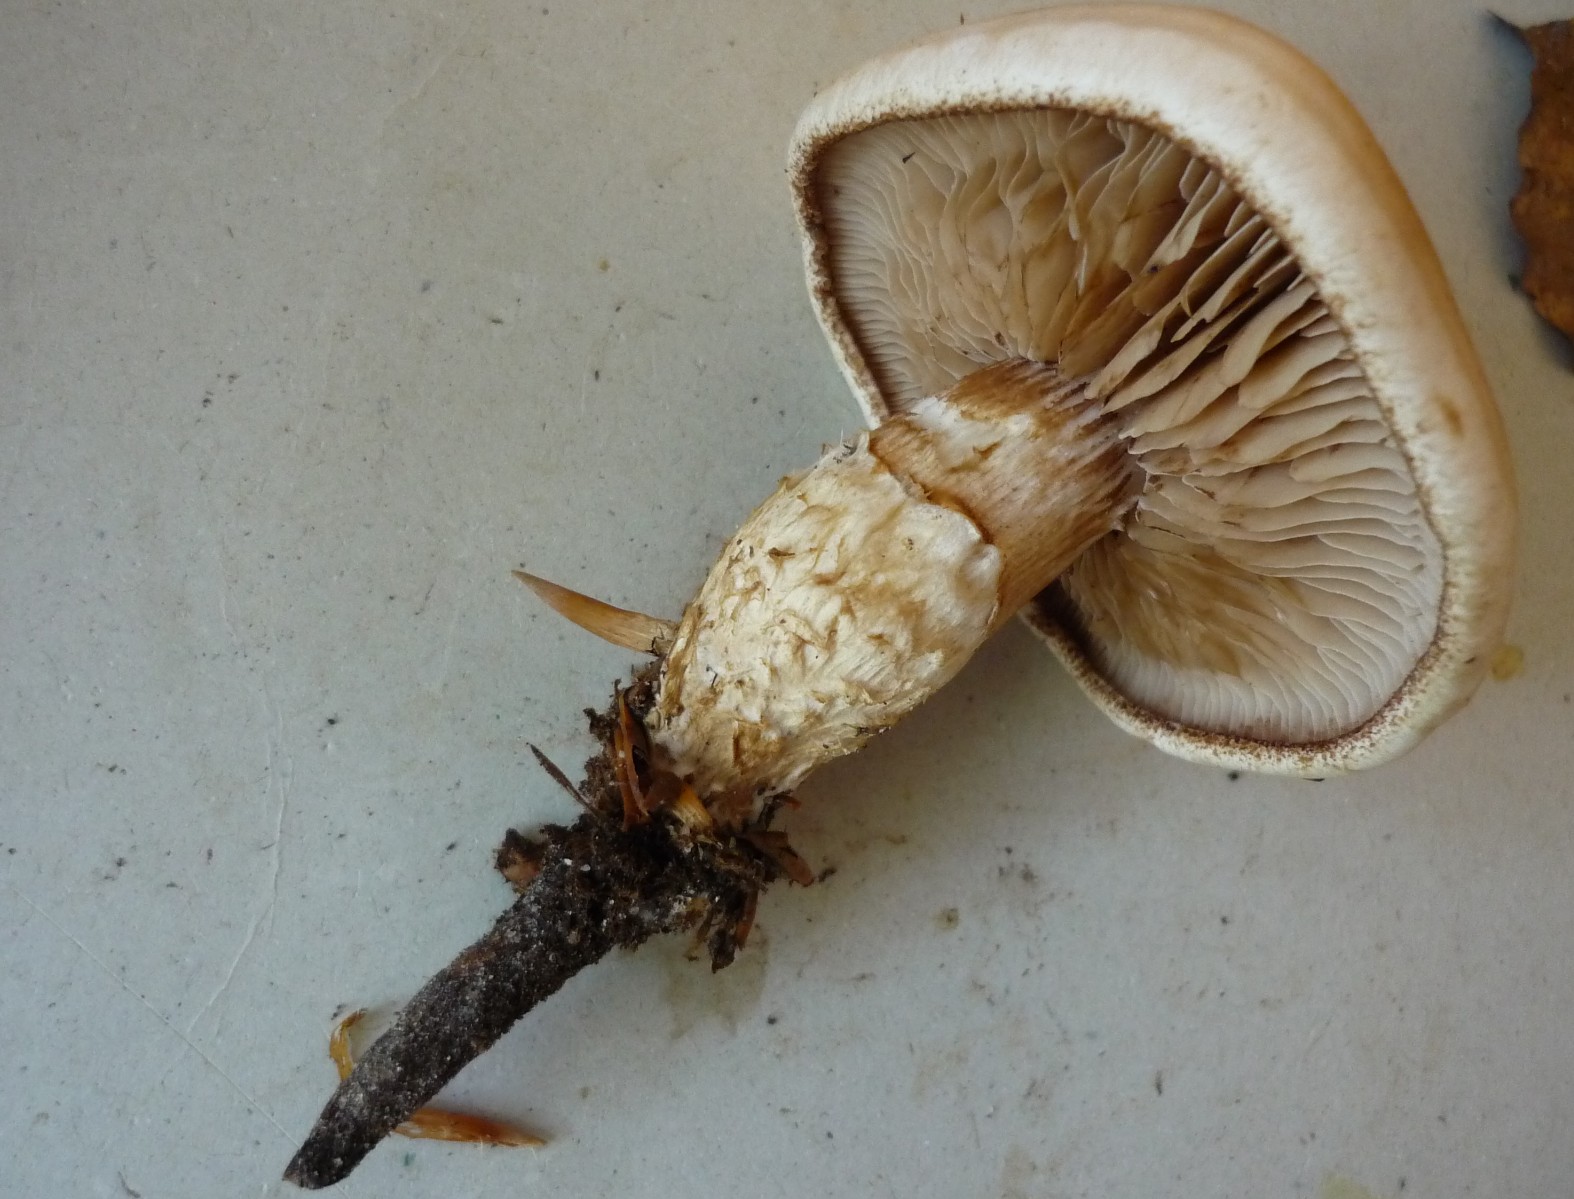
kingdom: Fungi
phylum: Basidiomycota
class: Agaricomycetes
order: Agaricales
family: Hymenogastraceae
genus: Hebeloma
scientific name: Hebeloma radicosum
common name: pælerods-tåreblad
